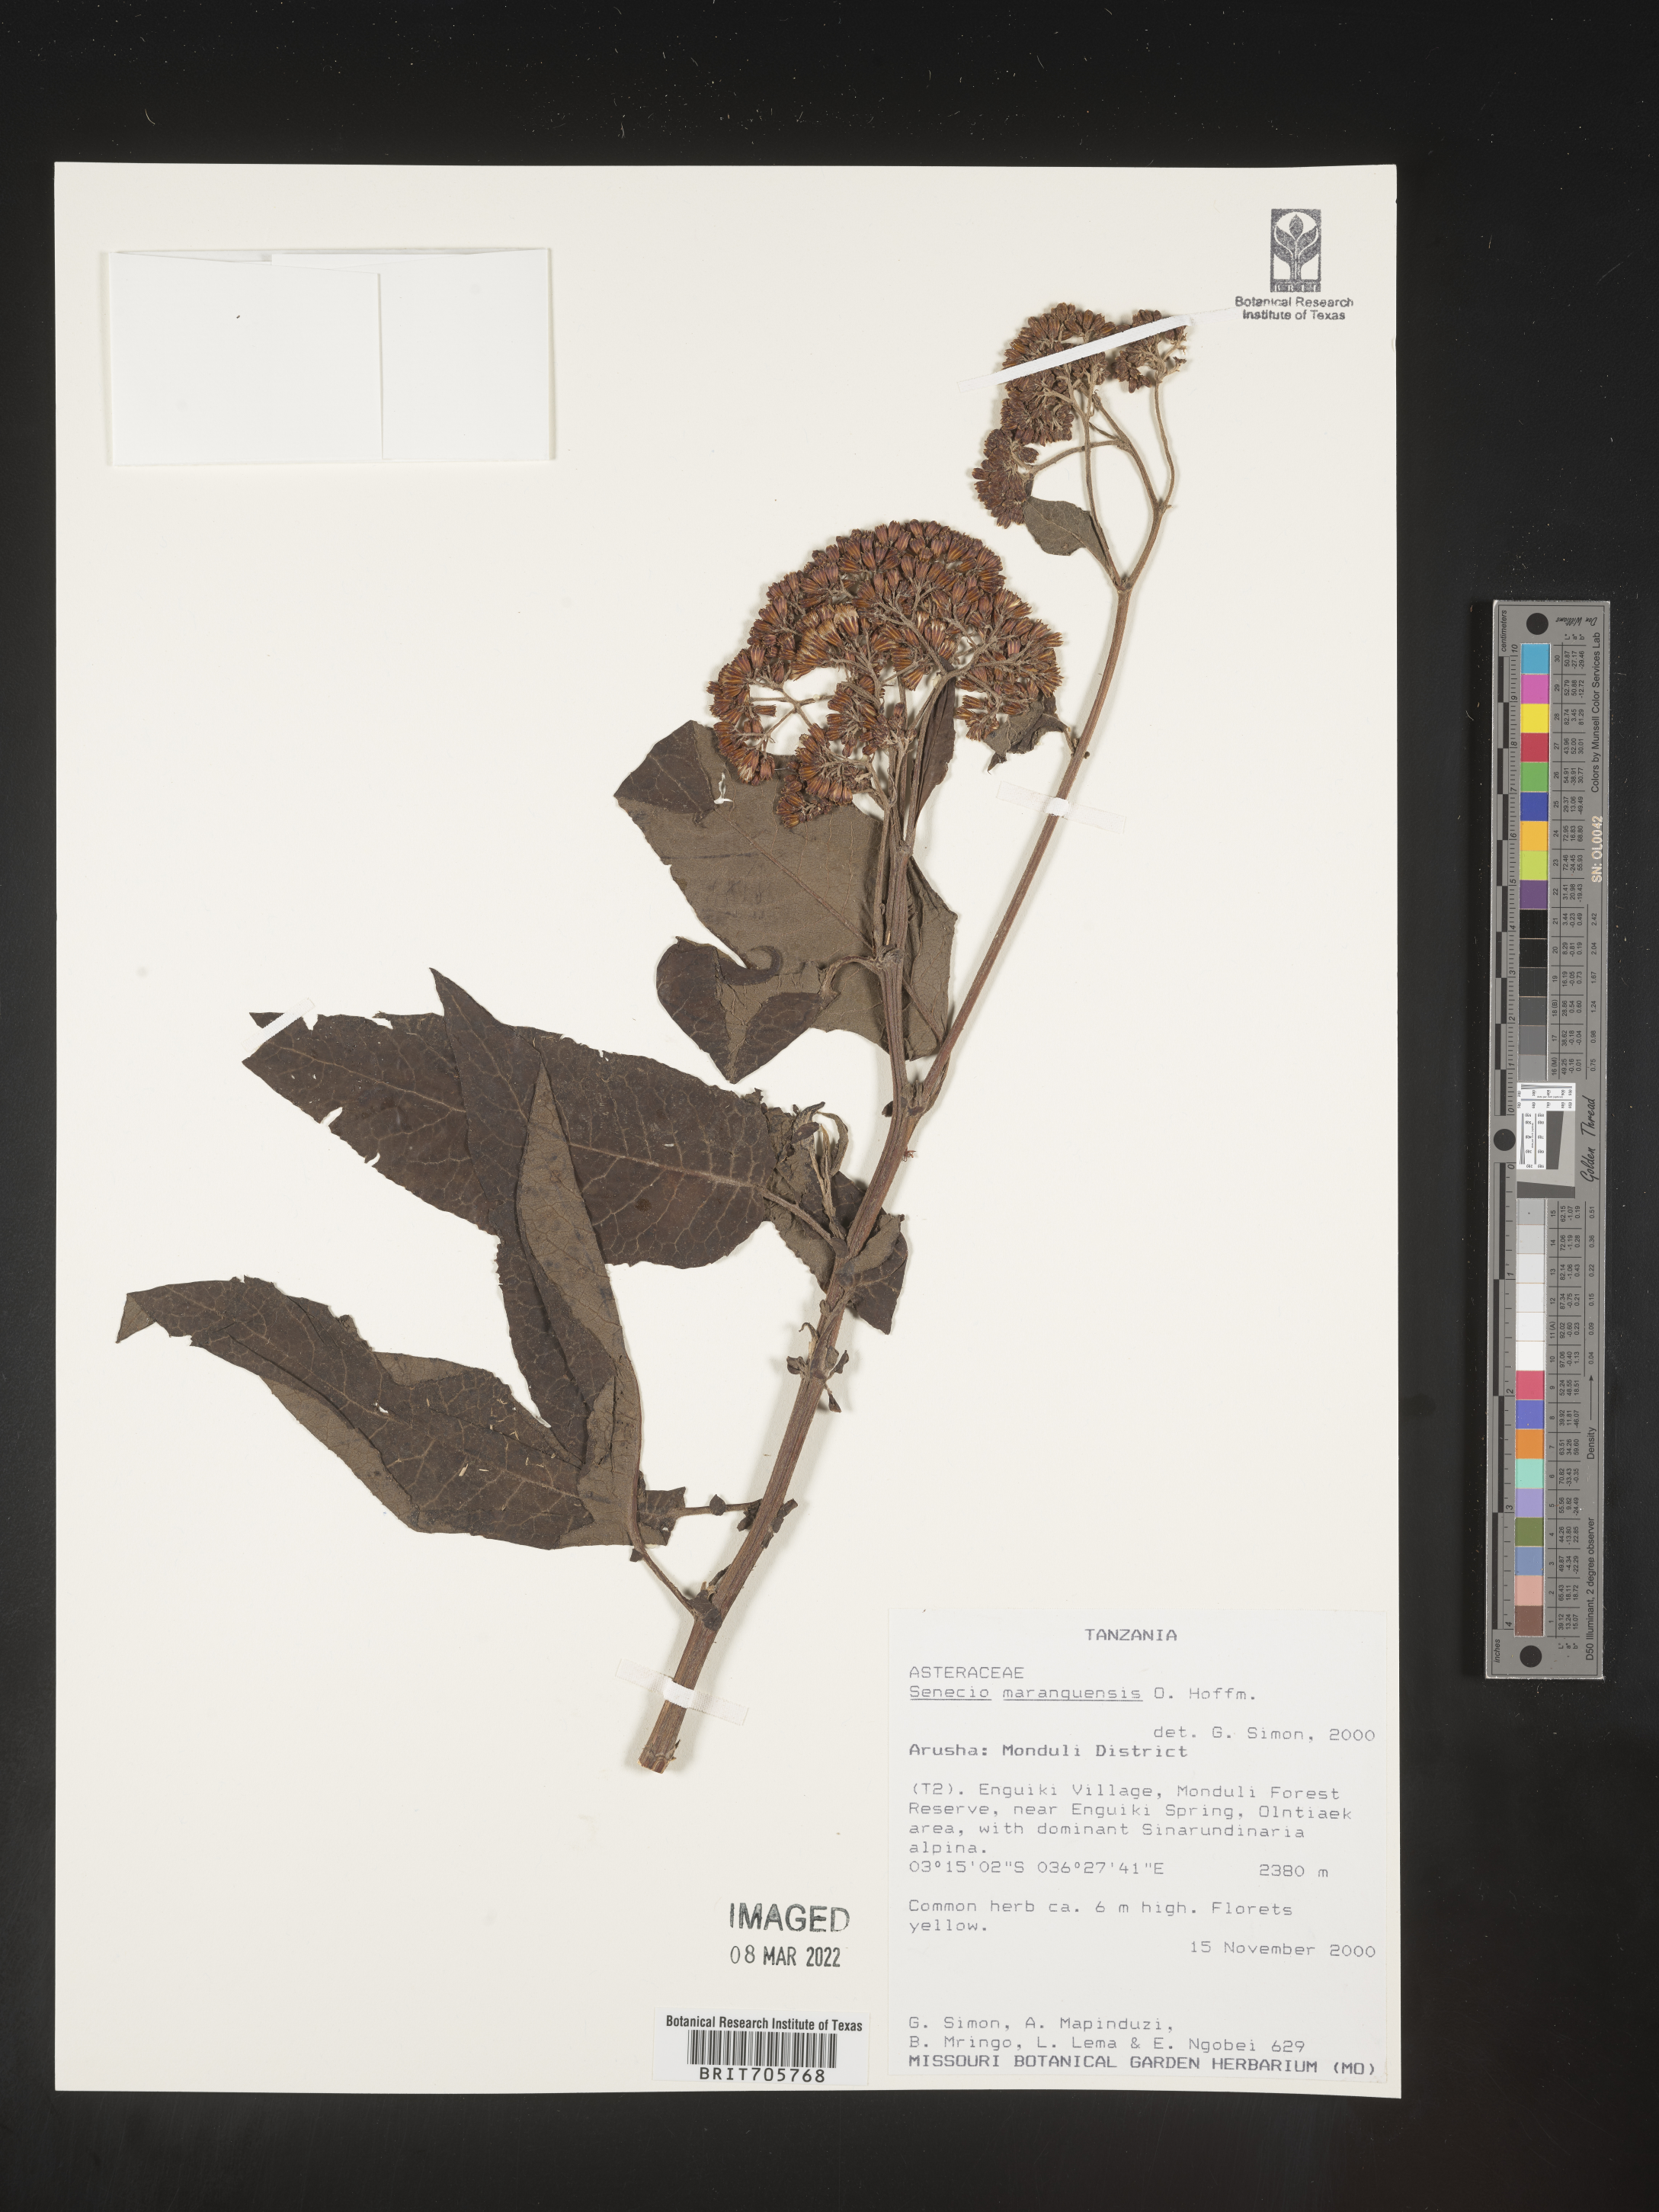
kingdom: Plantae
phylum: Tracheophyta
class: Magnoliopsida
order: Asterales
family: Asteraceae
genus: Senecio
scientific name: Senecio
